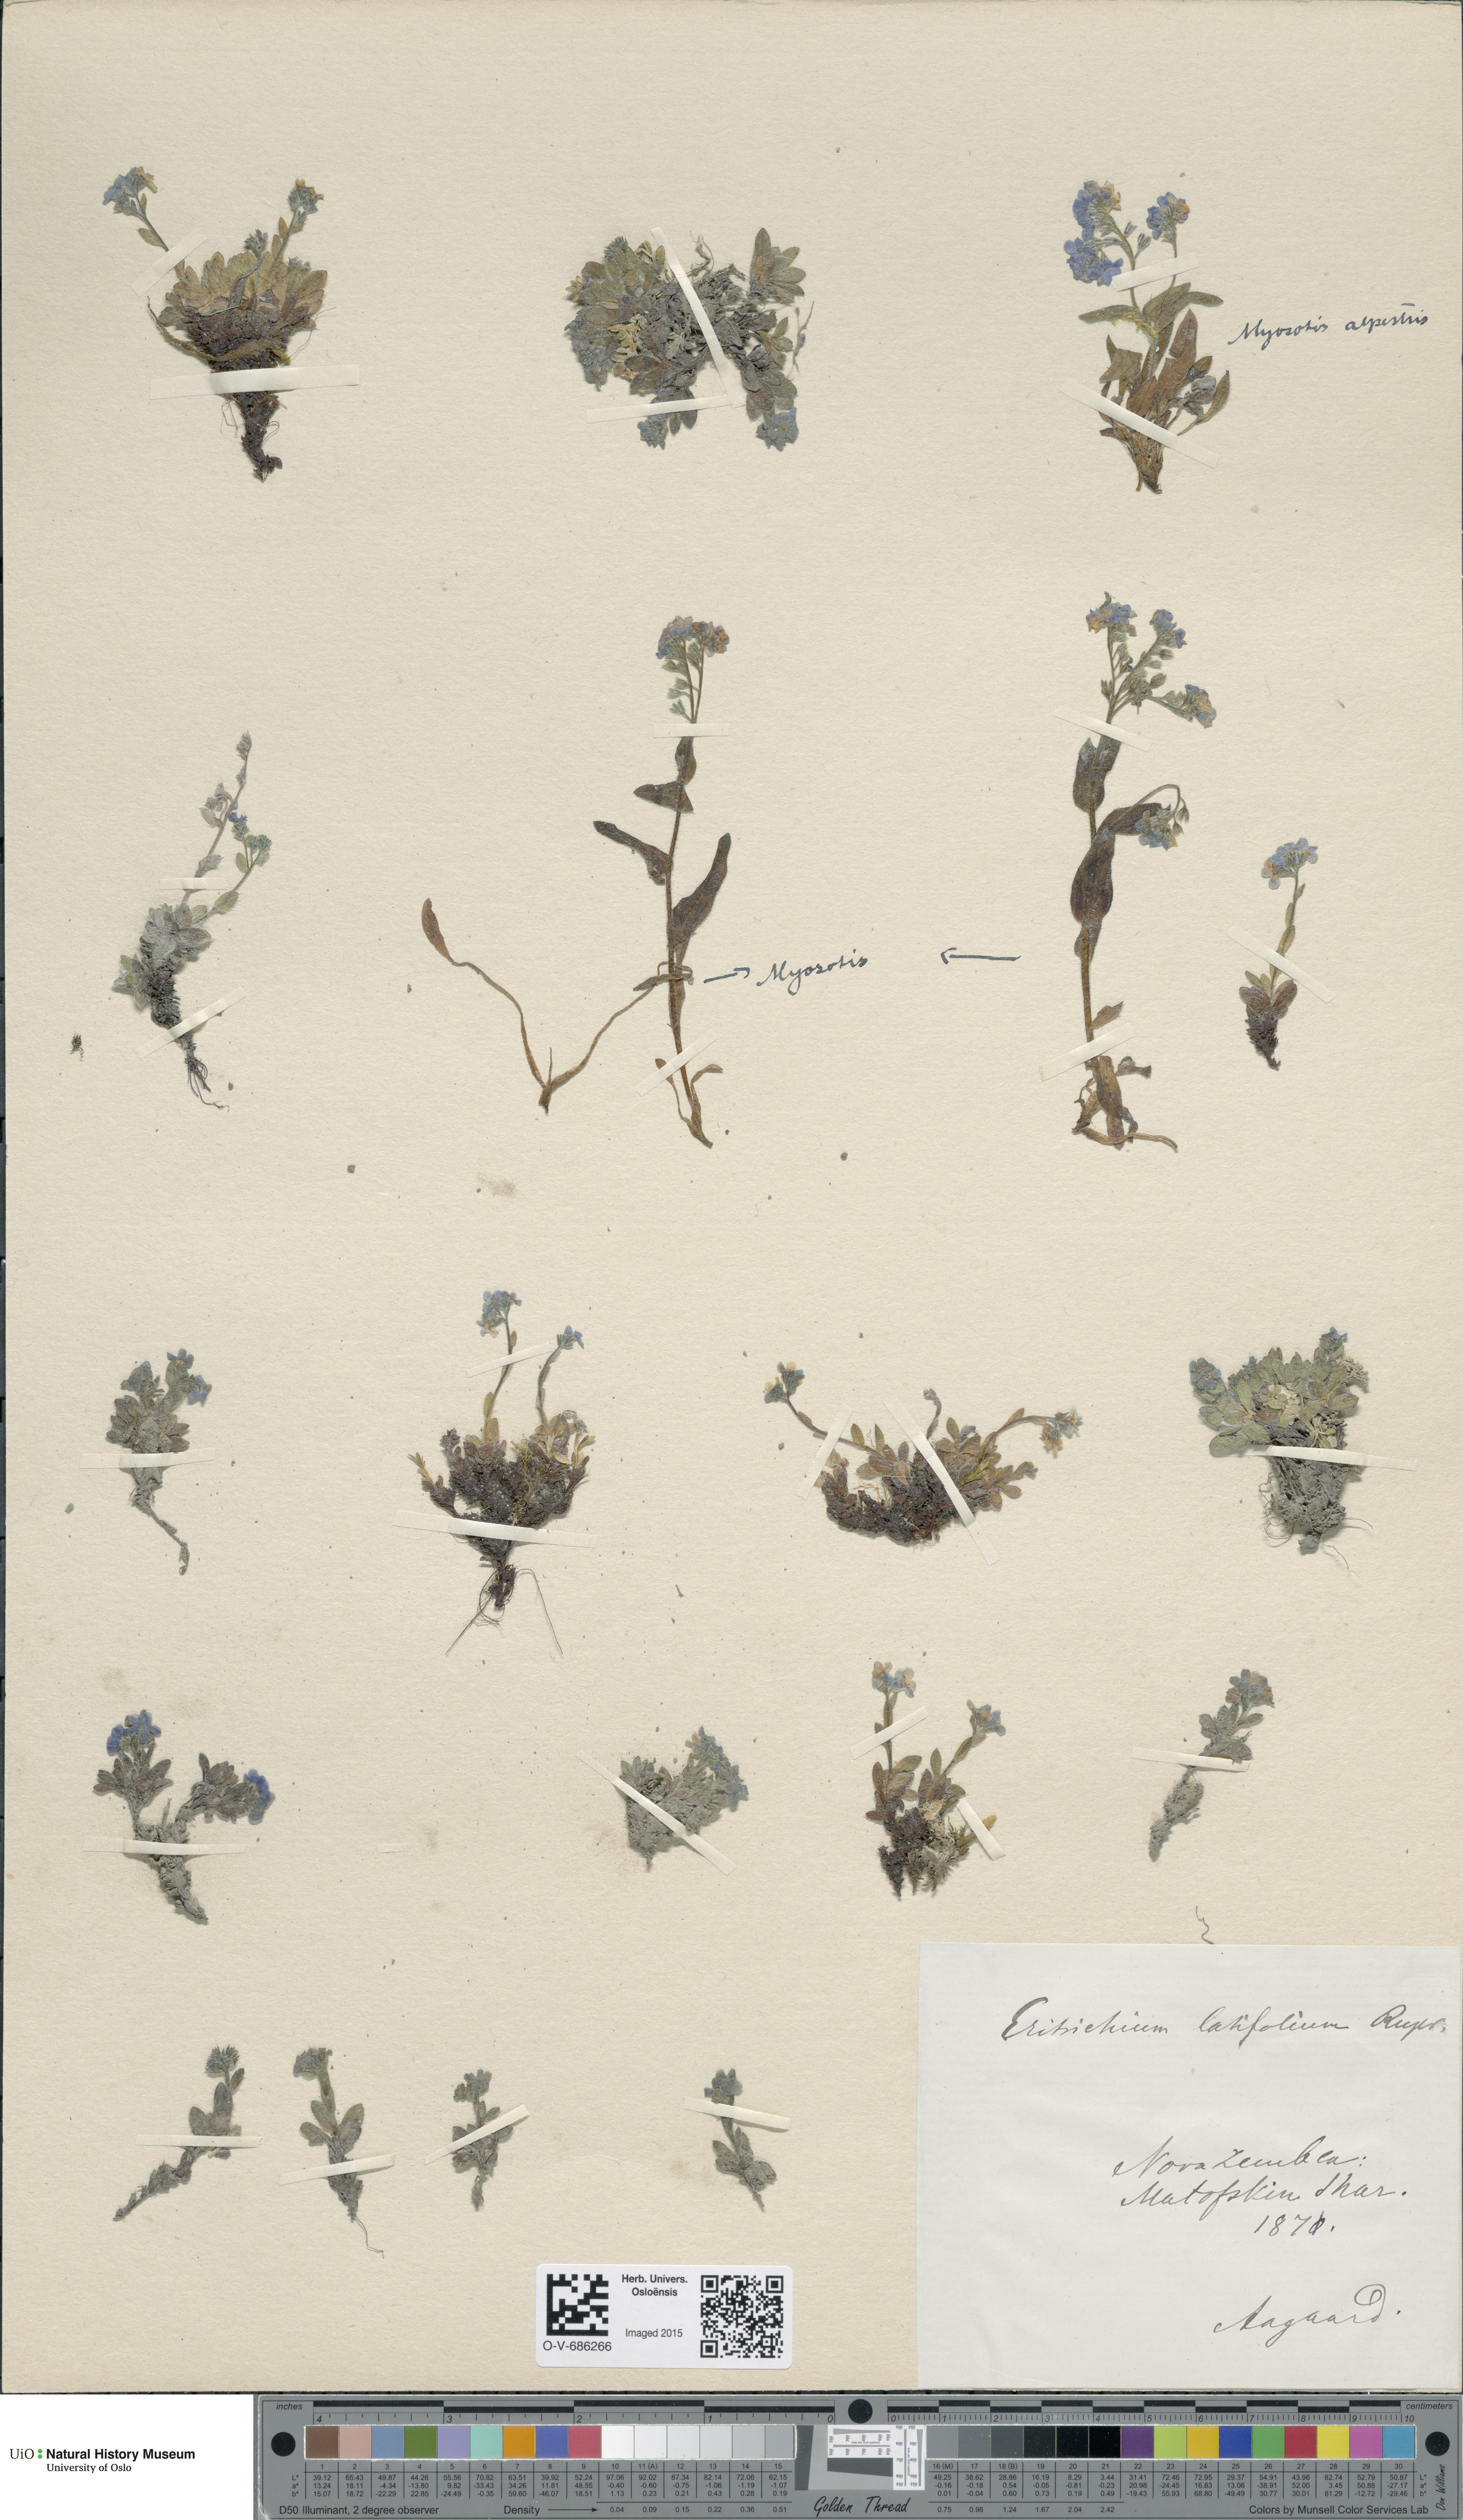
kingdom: Plantae
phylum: Tracheophyta
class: Magnoliopsida
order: Boraginales
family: Boraginaceae
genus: Eritrichium
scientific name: Eritrichium latifolium
